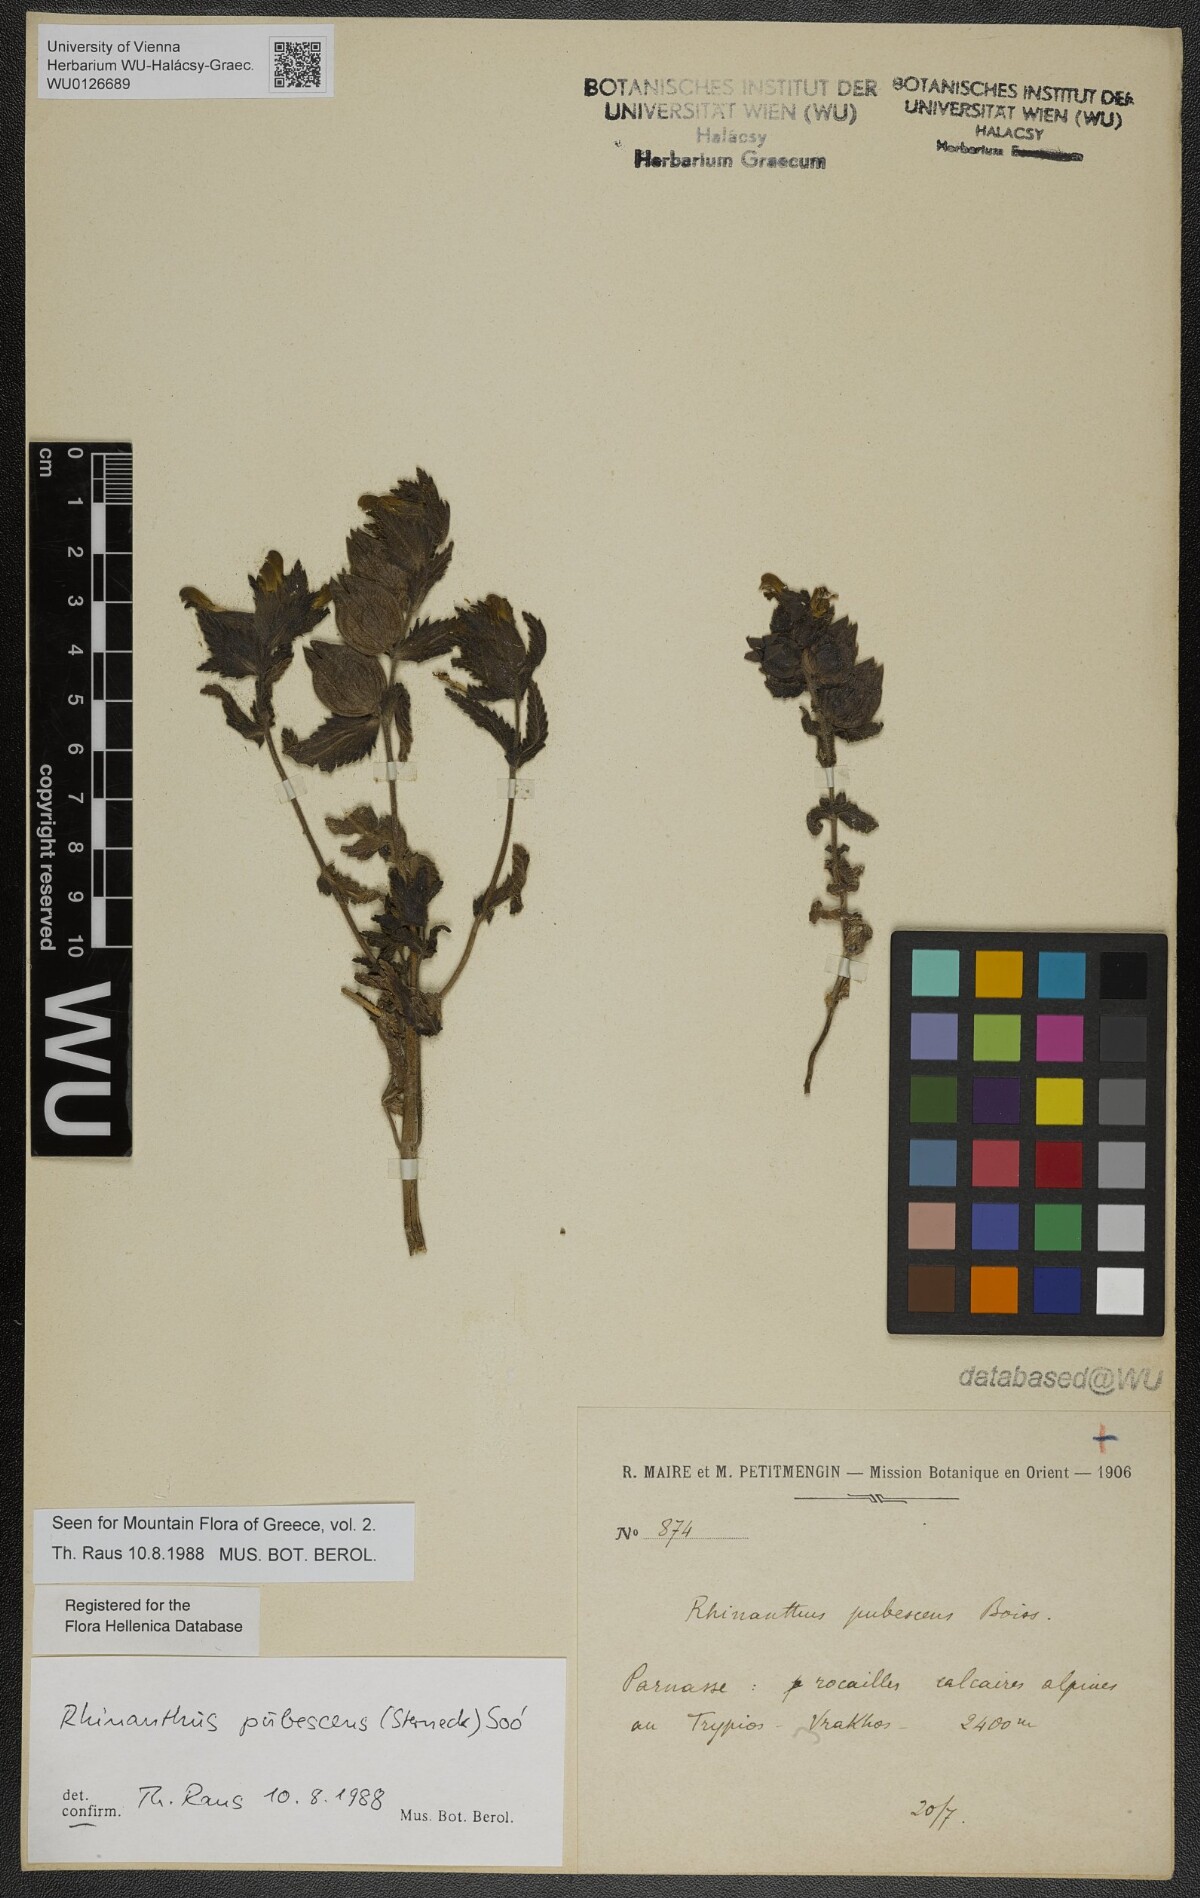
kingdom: Plantae
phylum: Tracheophyta
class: Magnoliopsida
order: Lamiales
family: Orobanchaceae
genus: Rhinanthus
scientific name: Rhinanthus pubescens
